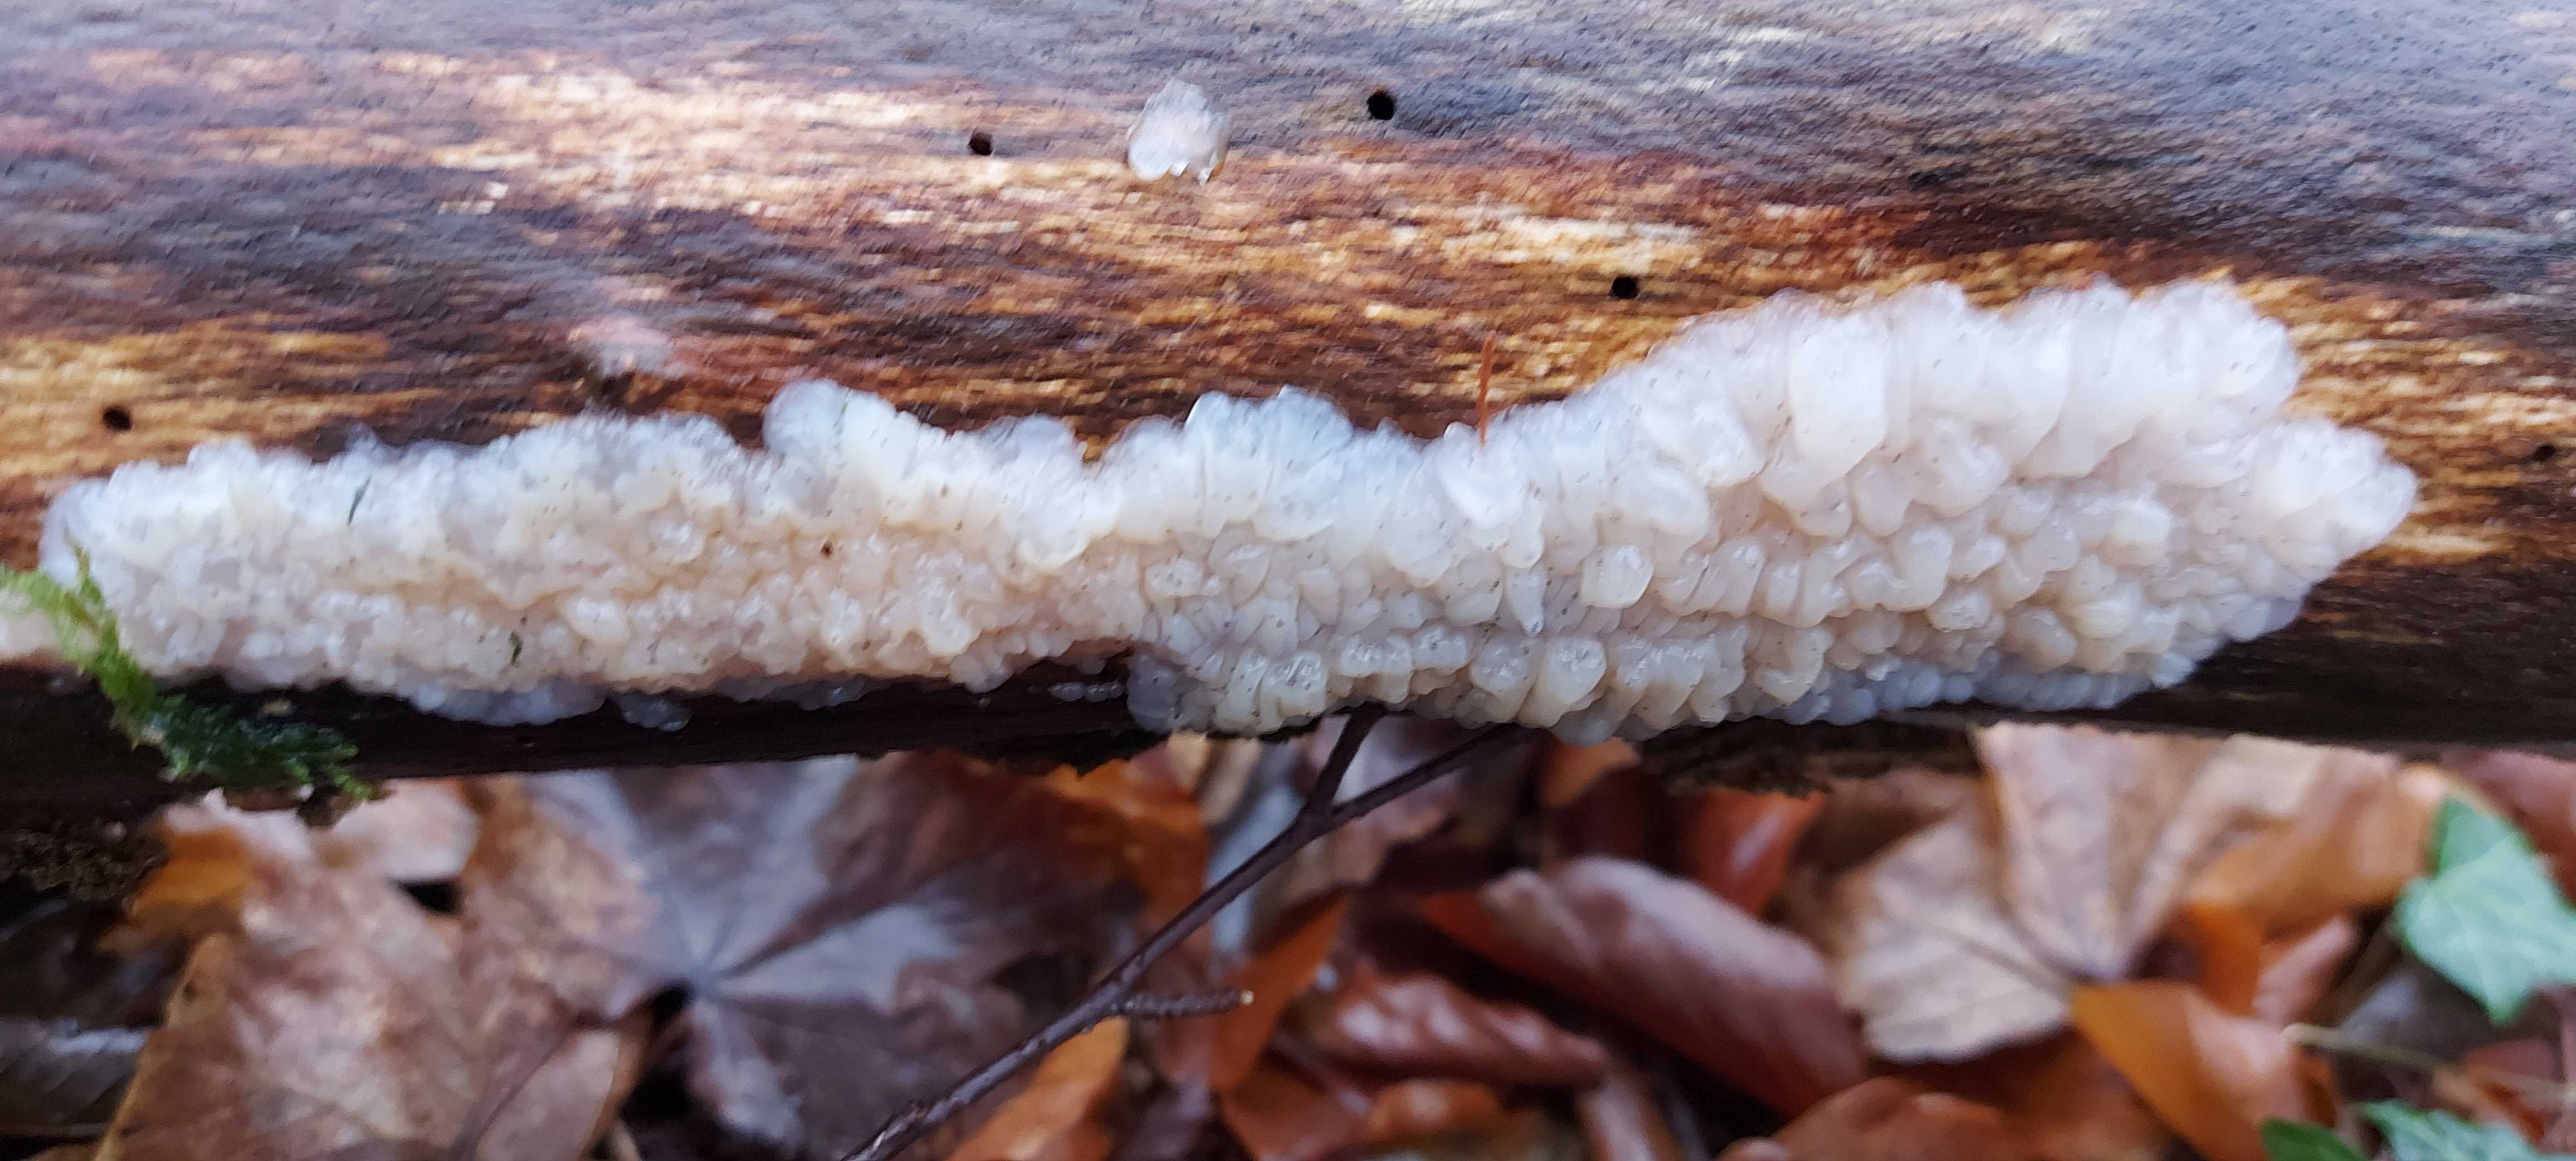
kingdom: Fungi
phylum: Basidiomycota
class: Agaricomycetes
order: Auriculariales
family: Auriculariaceae
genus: Exidia
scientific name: Exidia thuretiana
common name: hvidlig bævretop
